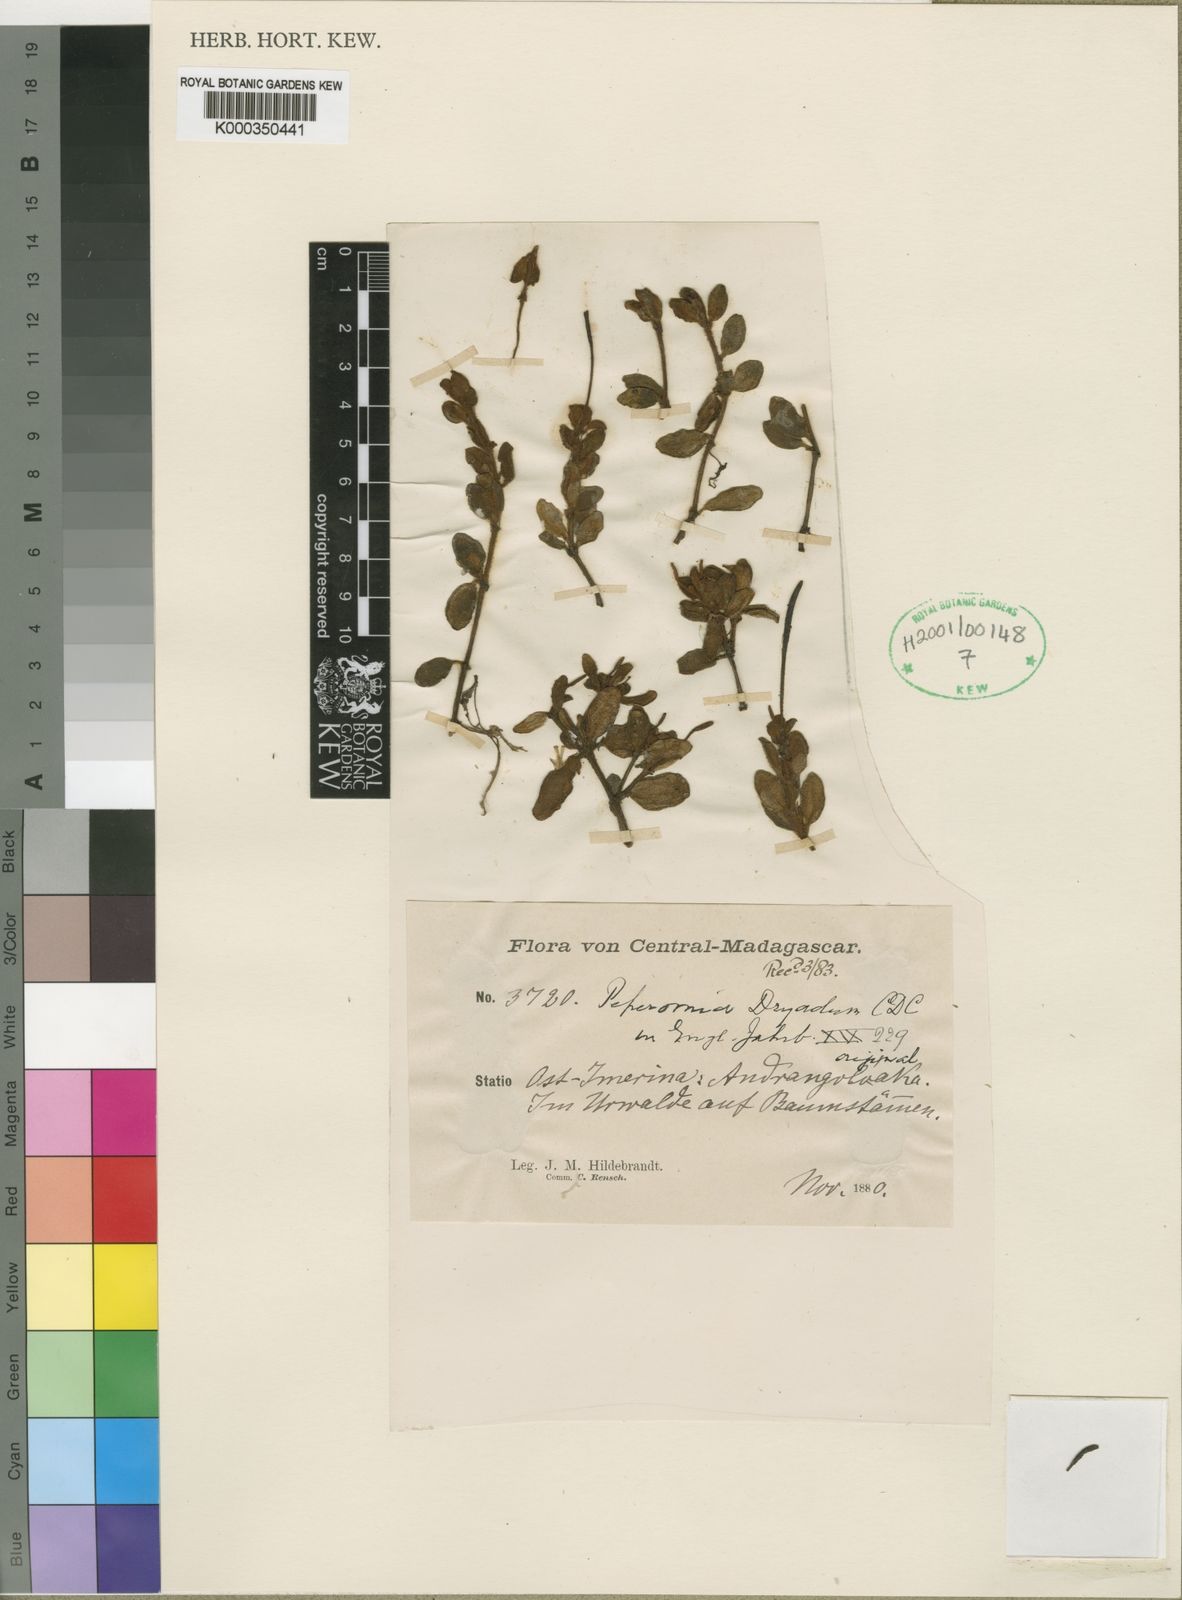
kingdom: Plantae
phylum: Tracheophyta
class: Magnoliopsida
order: Piperales
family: Piperaceae
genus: Peperomia
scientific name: Peperomia
